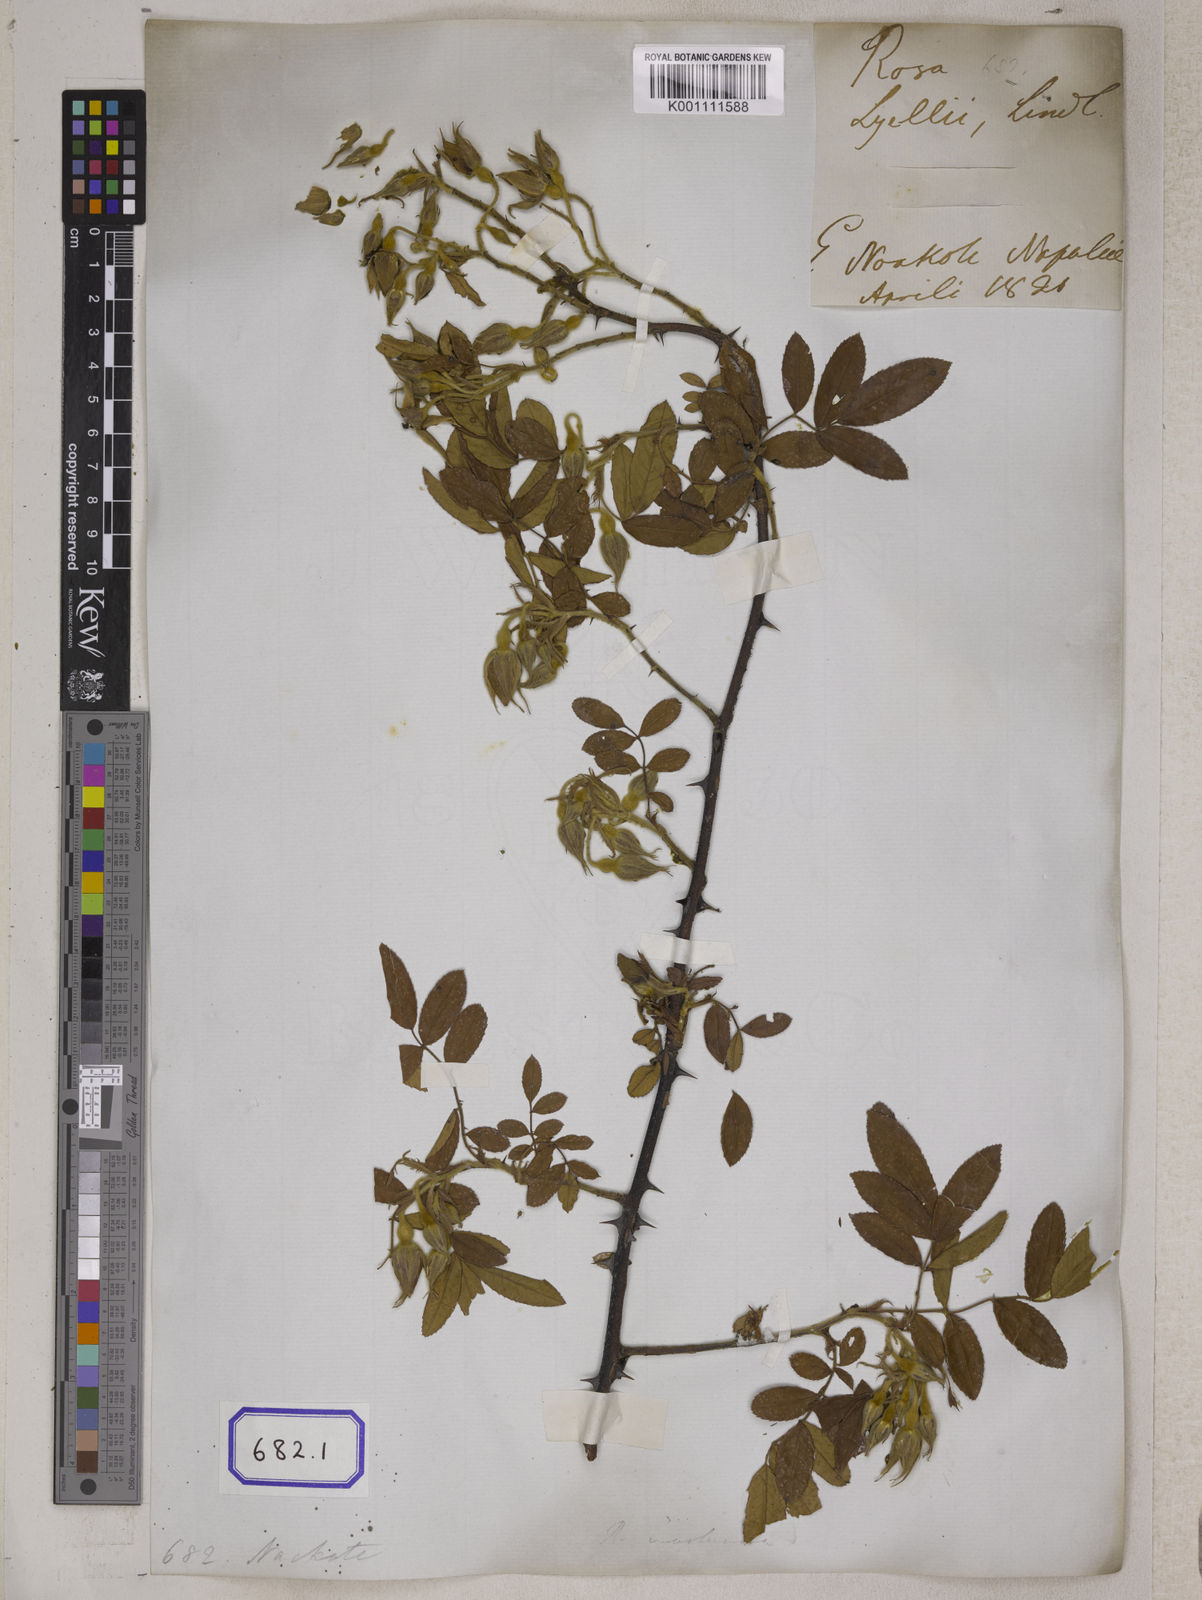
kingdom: Plantae
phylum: Tracheophyta
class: Magnoliopsida
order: Rosales
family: Rosaceae
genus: Rosa
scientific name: Rosa clinophylla
